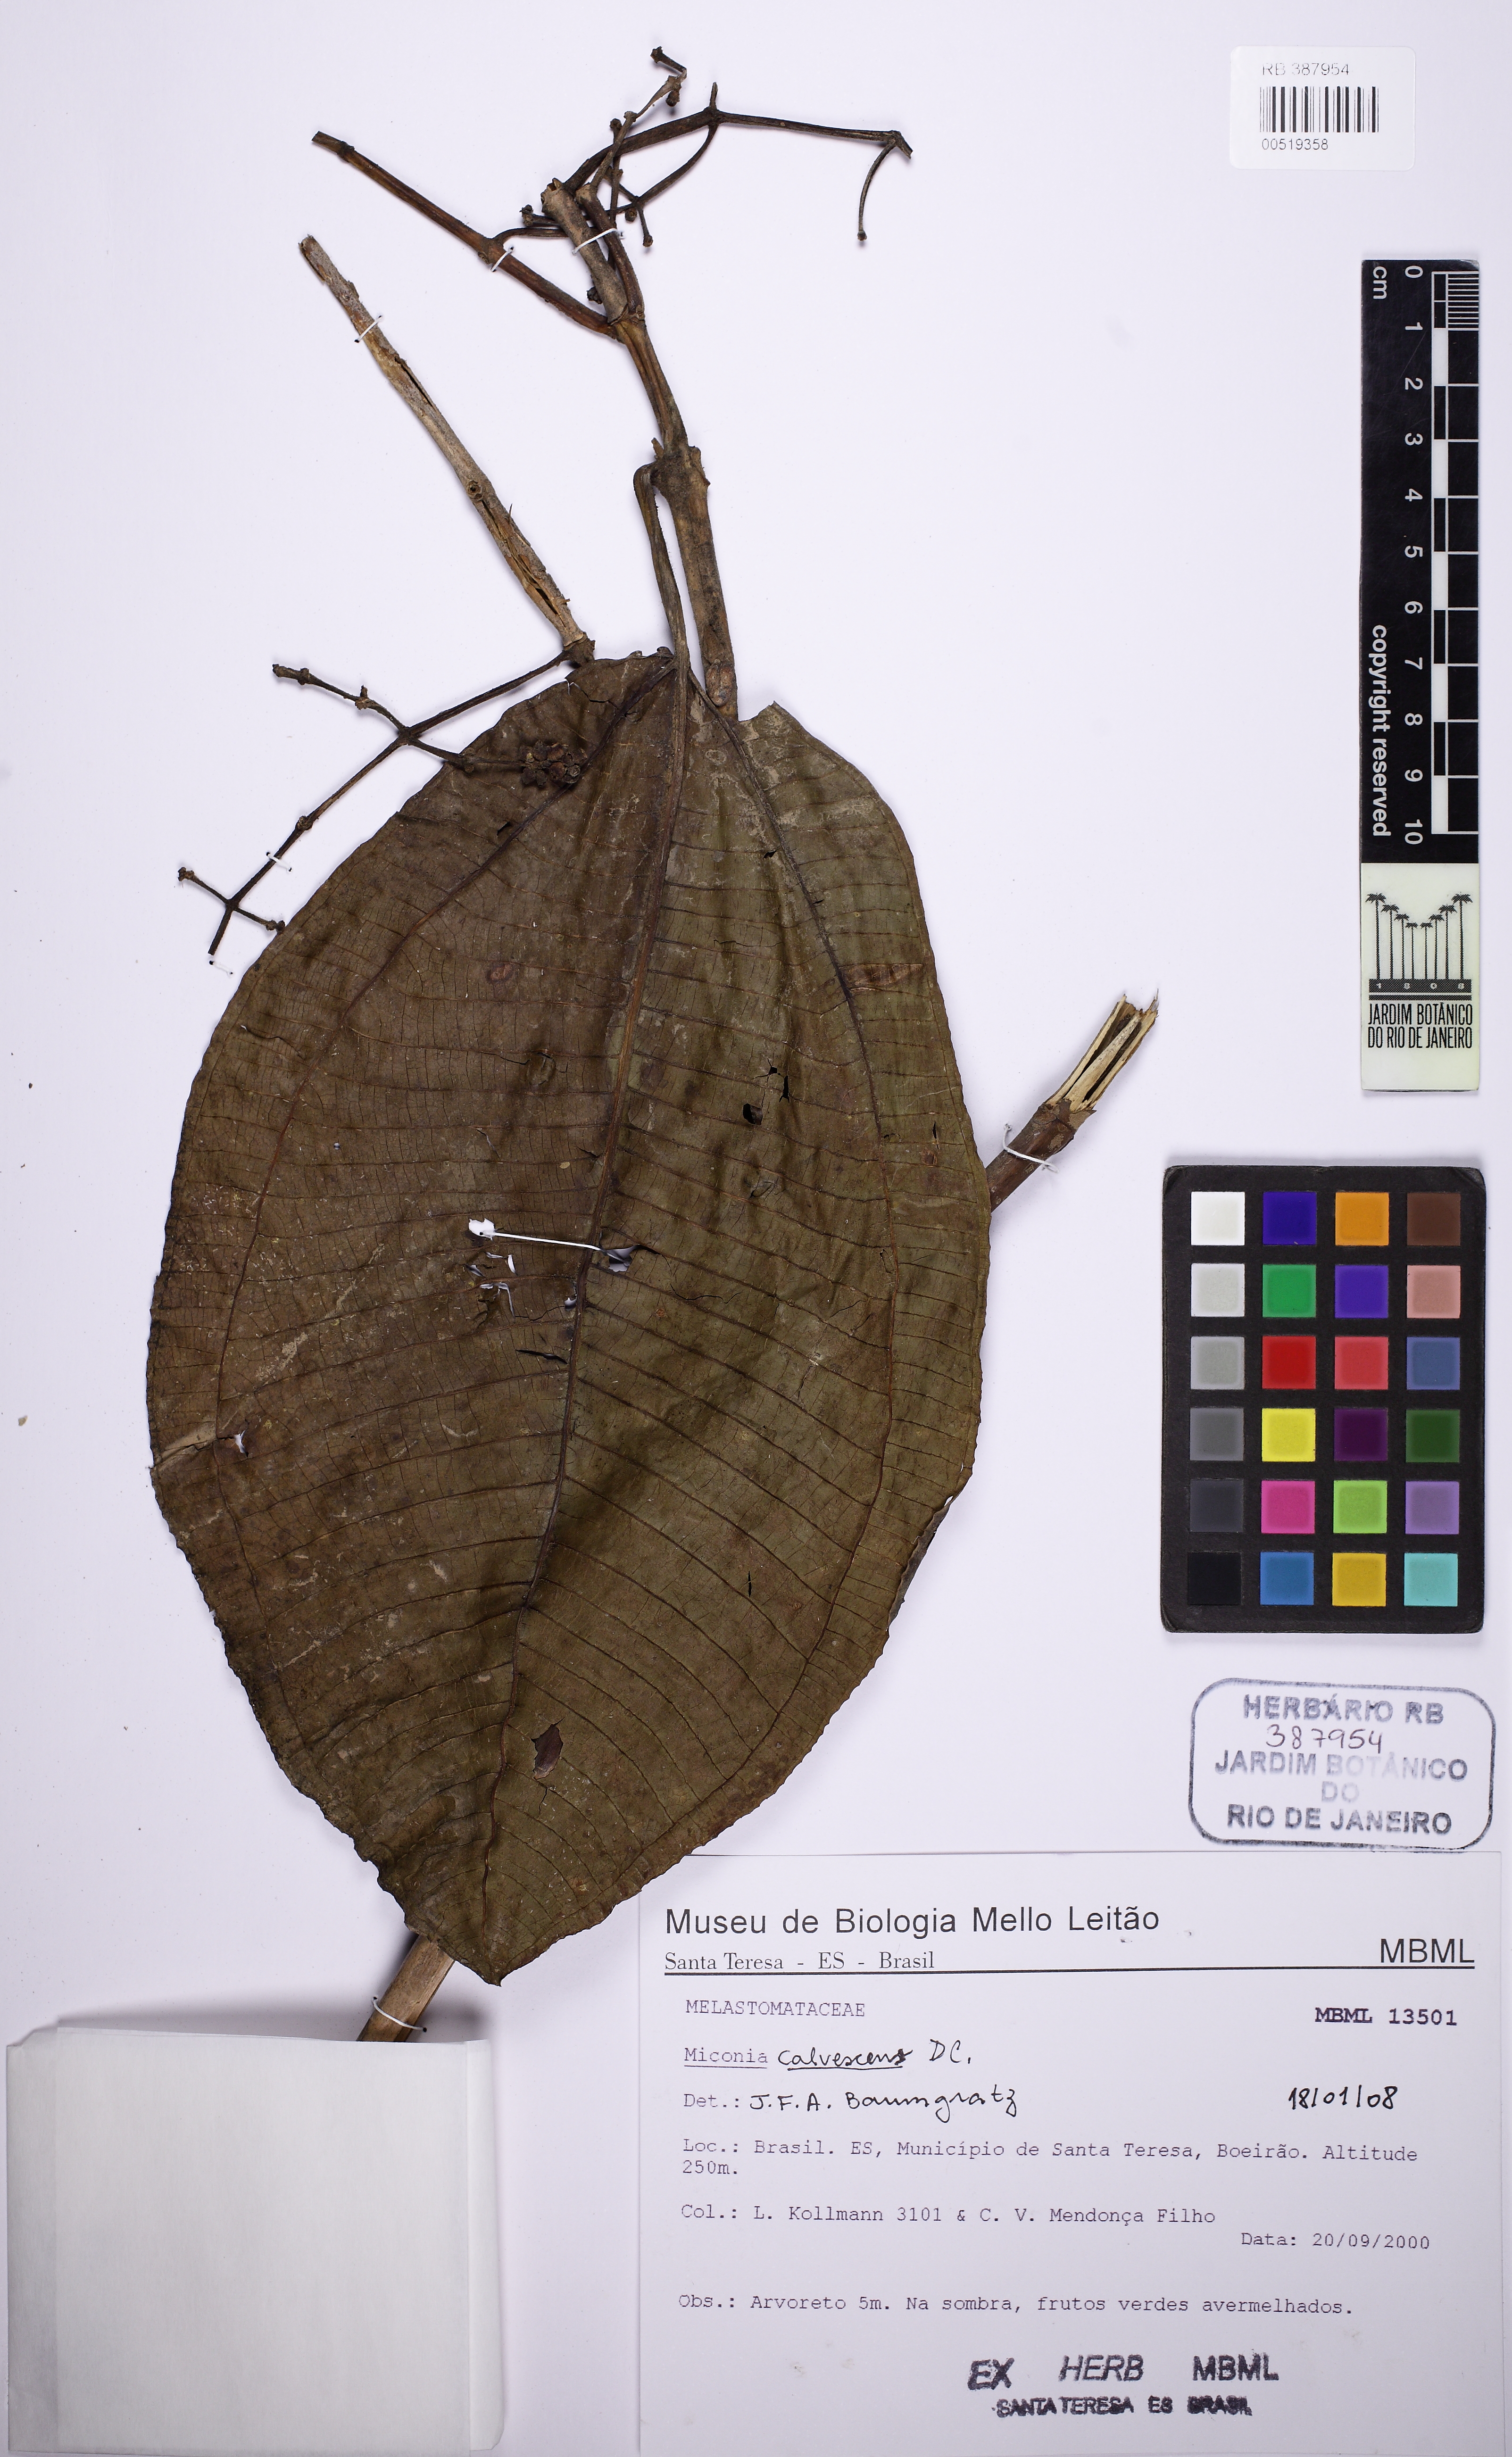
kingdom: Plantae
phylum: Tracheophyta
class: Magnoliopsida
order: Myrtales
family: Melastomataceae
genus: Miconia
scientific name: Miconia calvescens
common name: Purple plague
